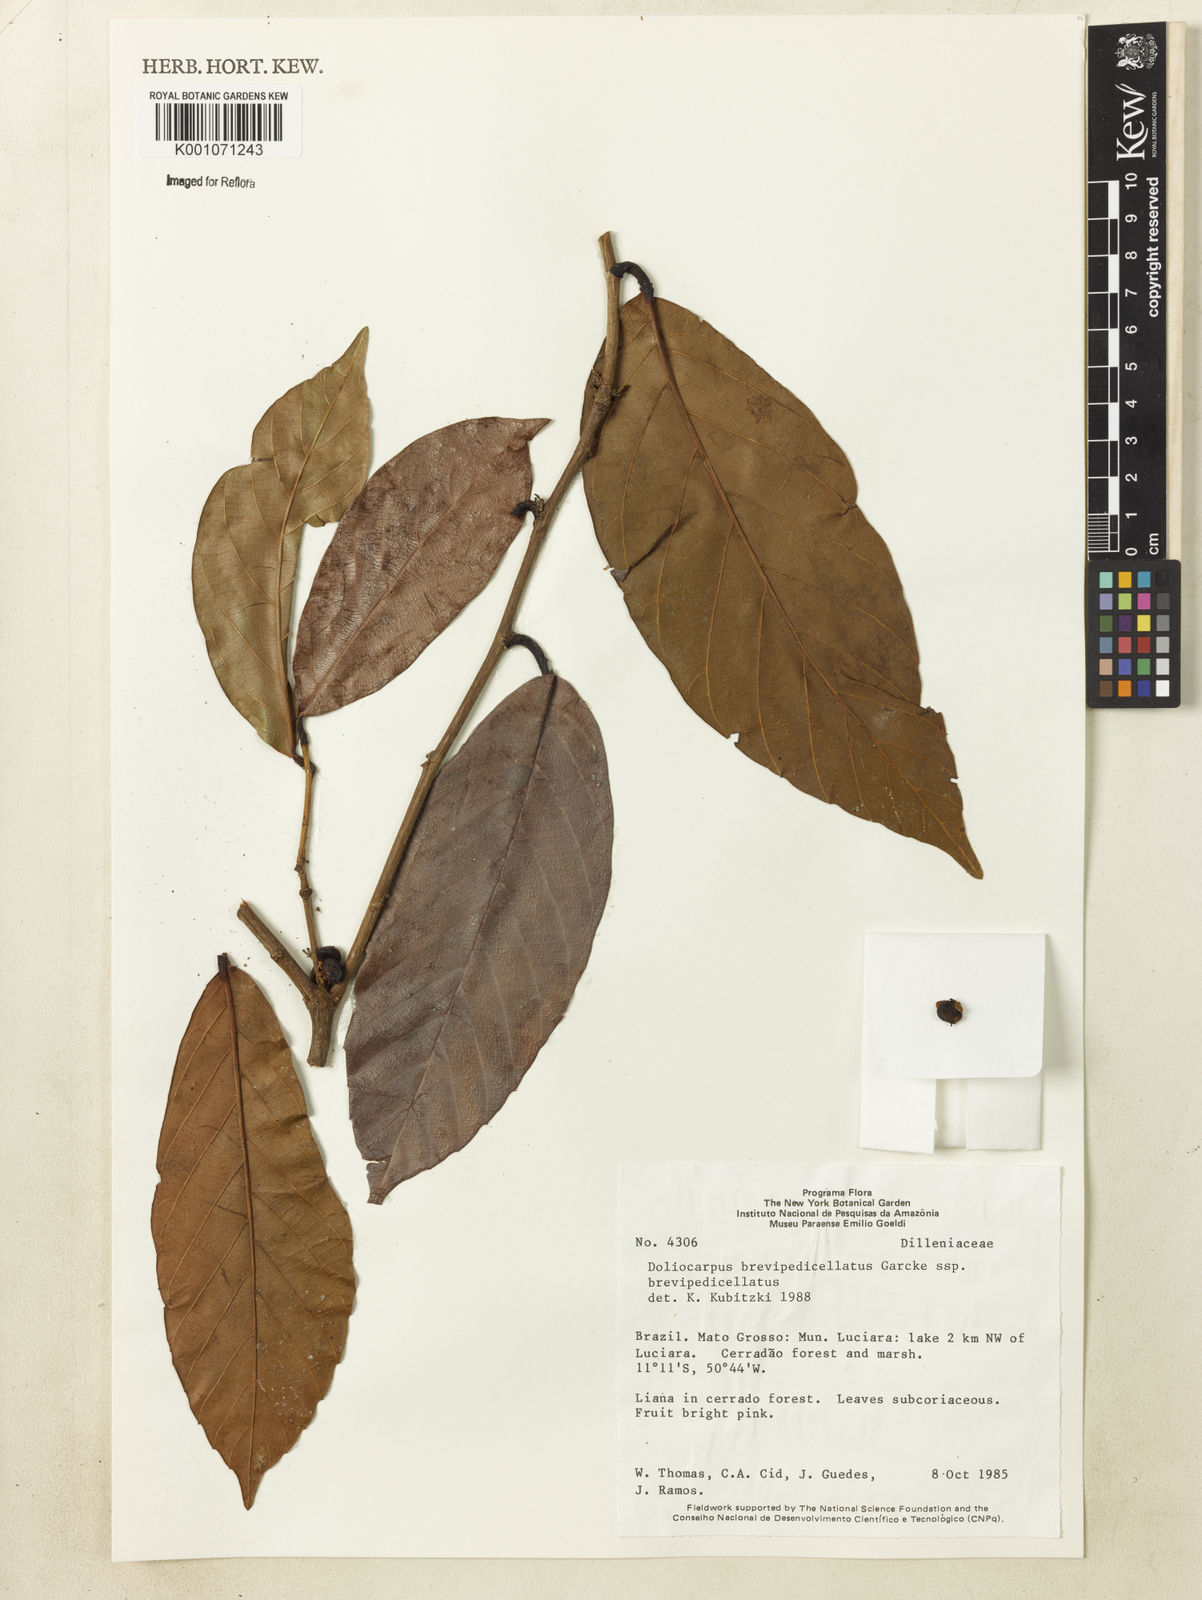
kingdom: Plantae
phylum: Tracheophyta
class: Magnoliopsida
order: Dilleniales
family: Dilleniaceae
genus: Doliocarpus
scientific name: Doliocarpus brevipedicellatus
